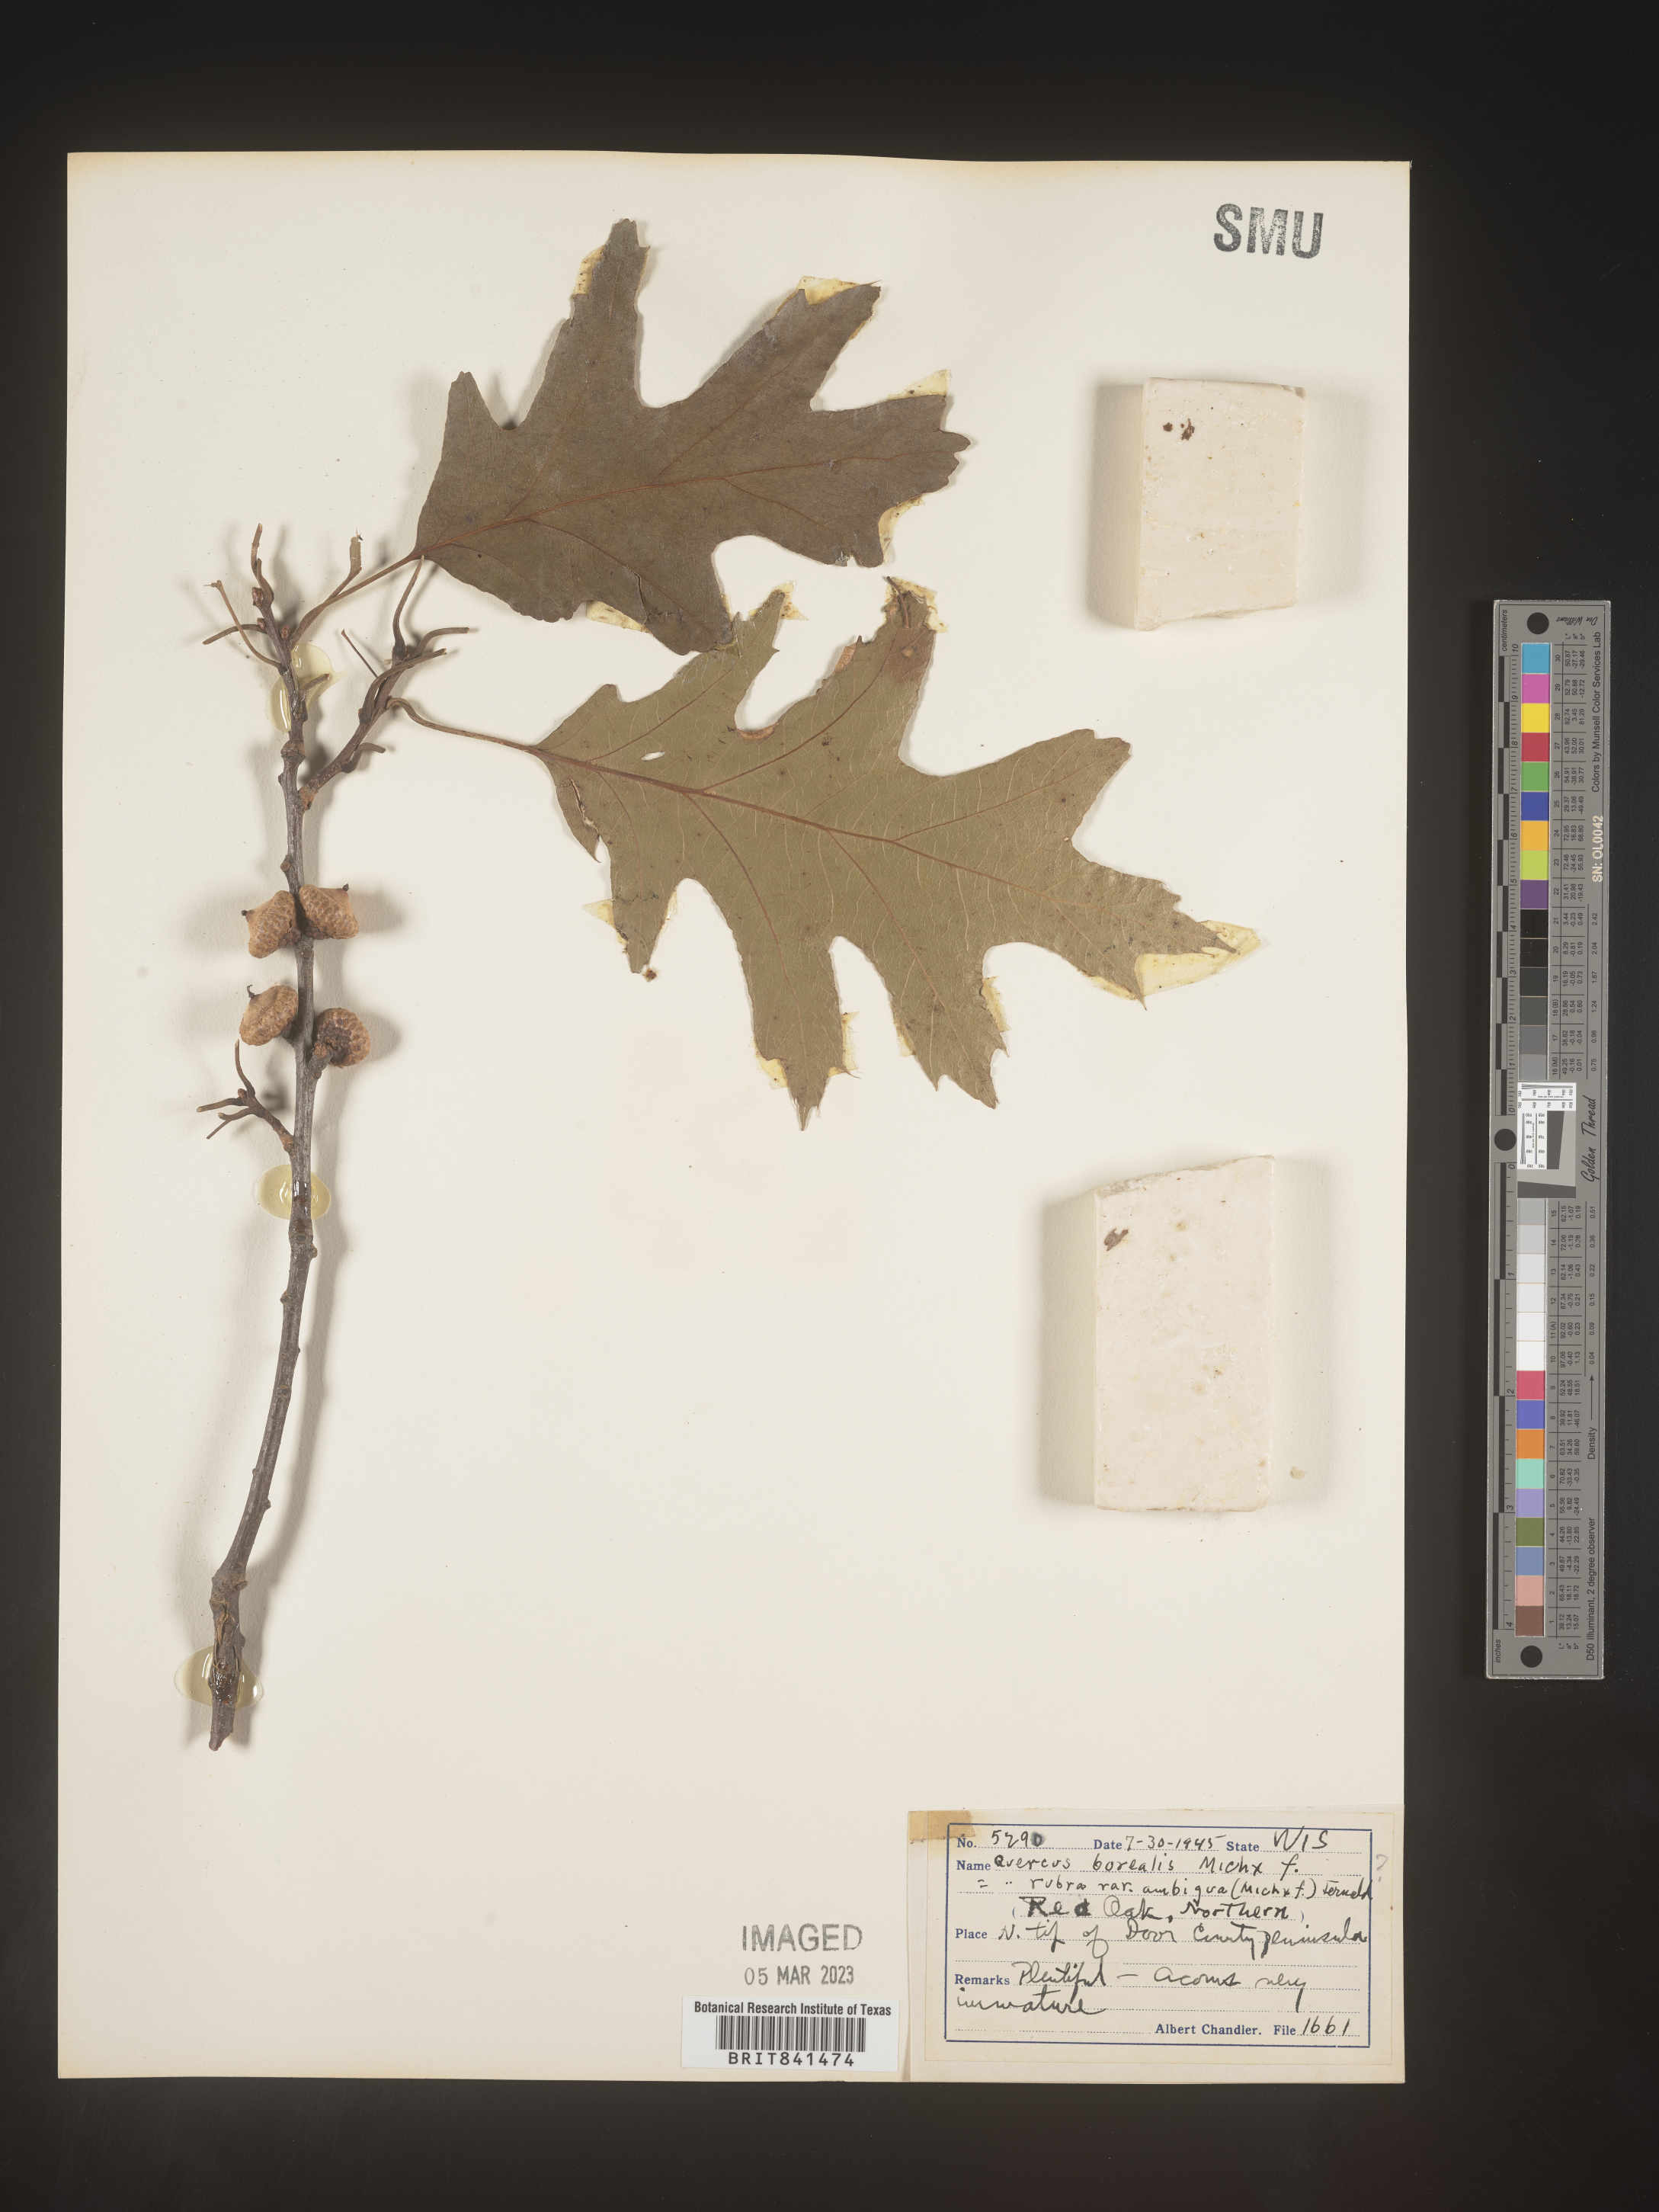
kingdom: Plantae
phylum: Tracheophyta
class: Magnoliopsida
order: Fagales
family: Fagaceae
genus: Quercus
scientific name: Quercus rubra
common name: Red oak
